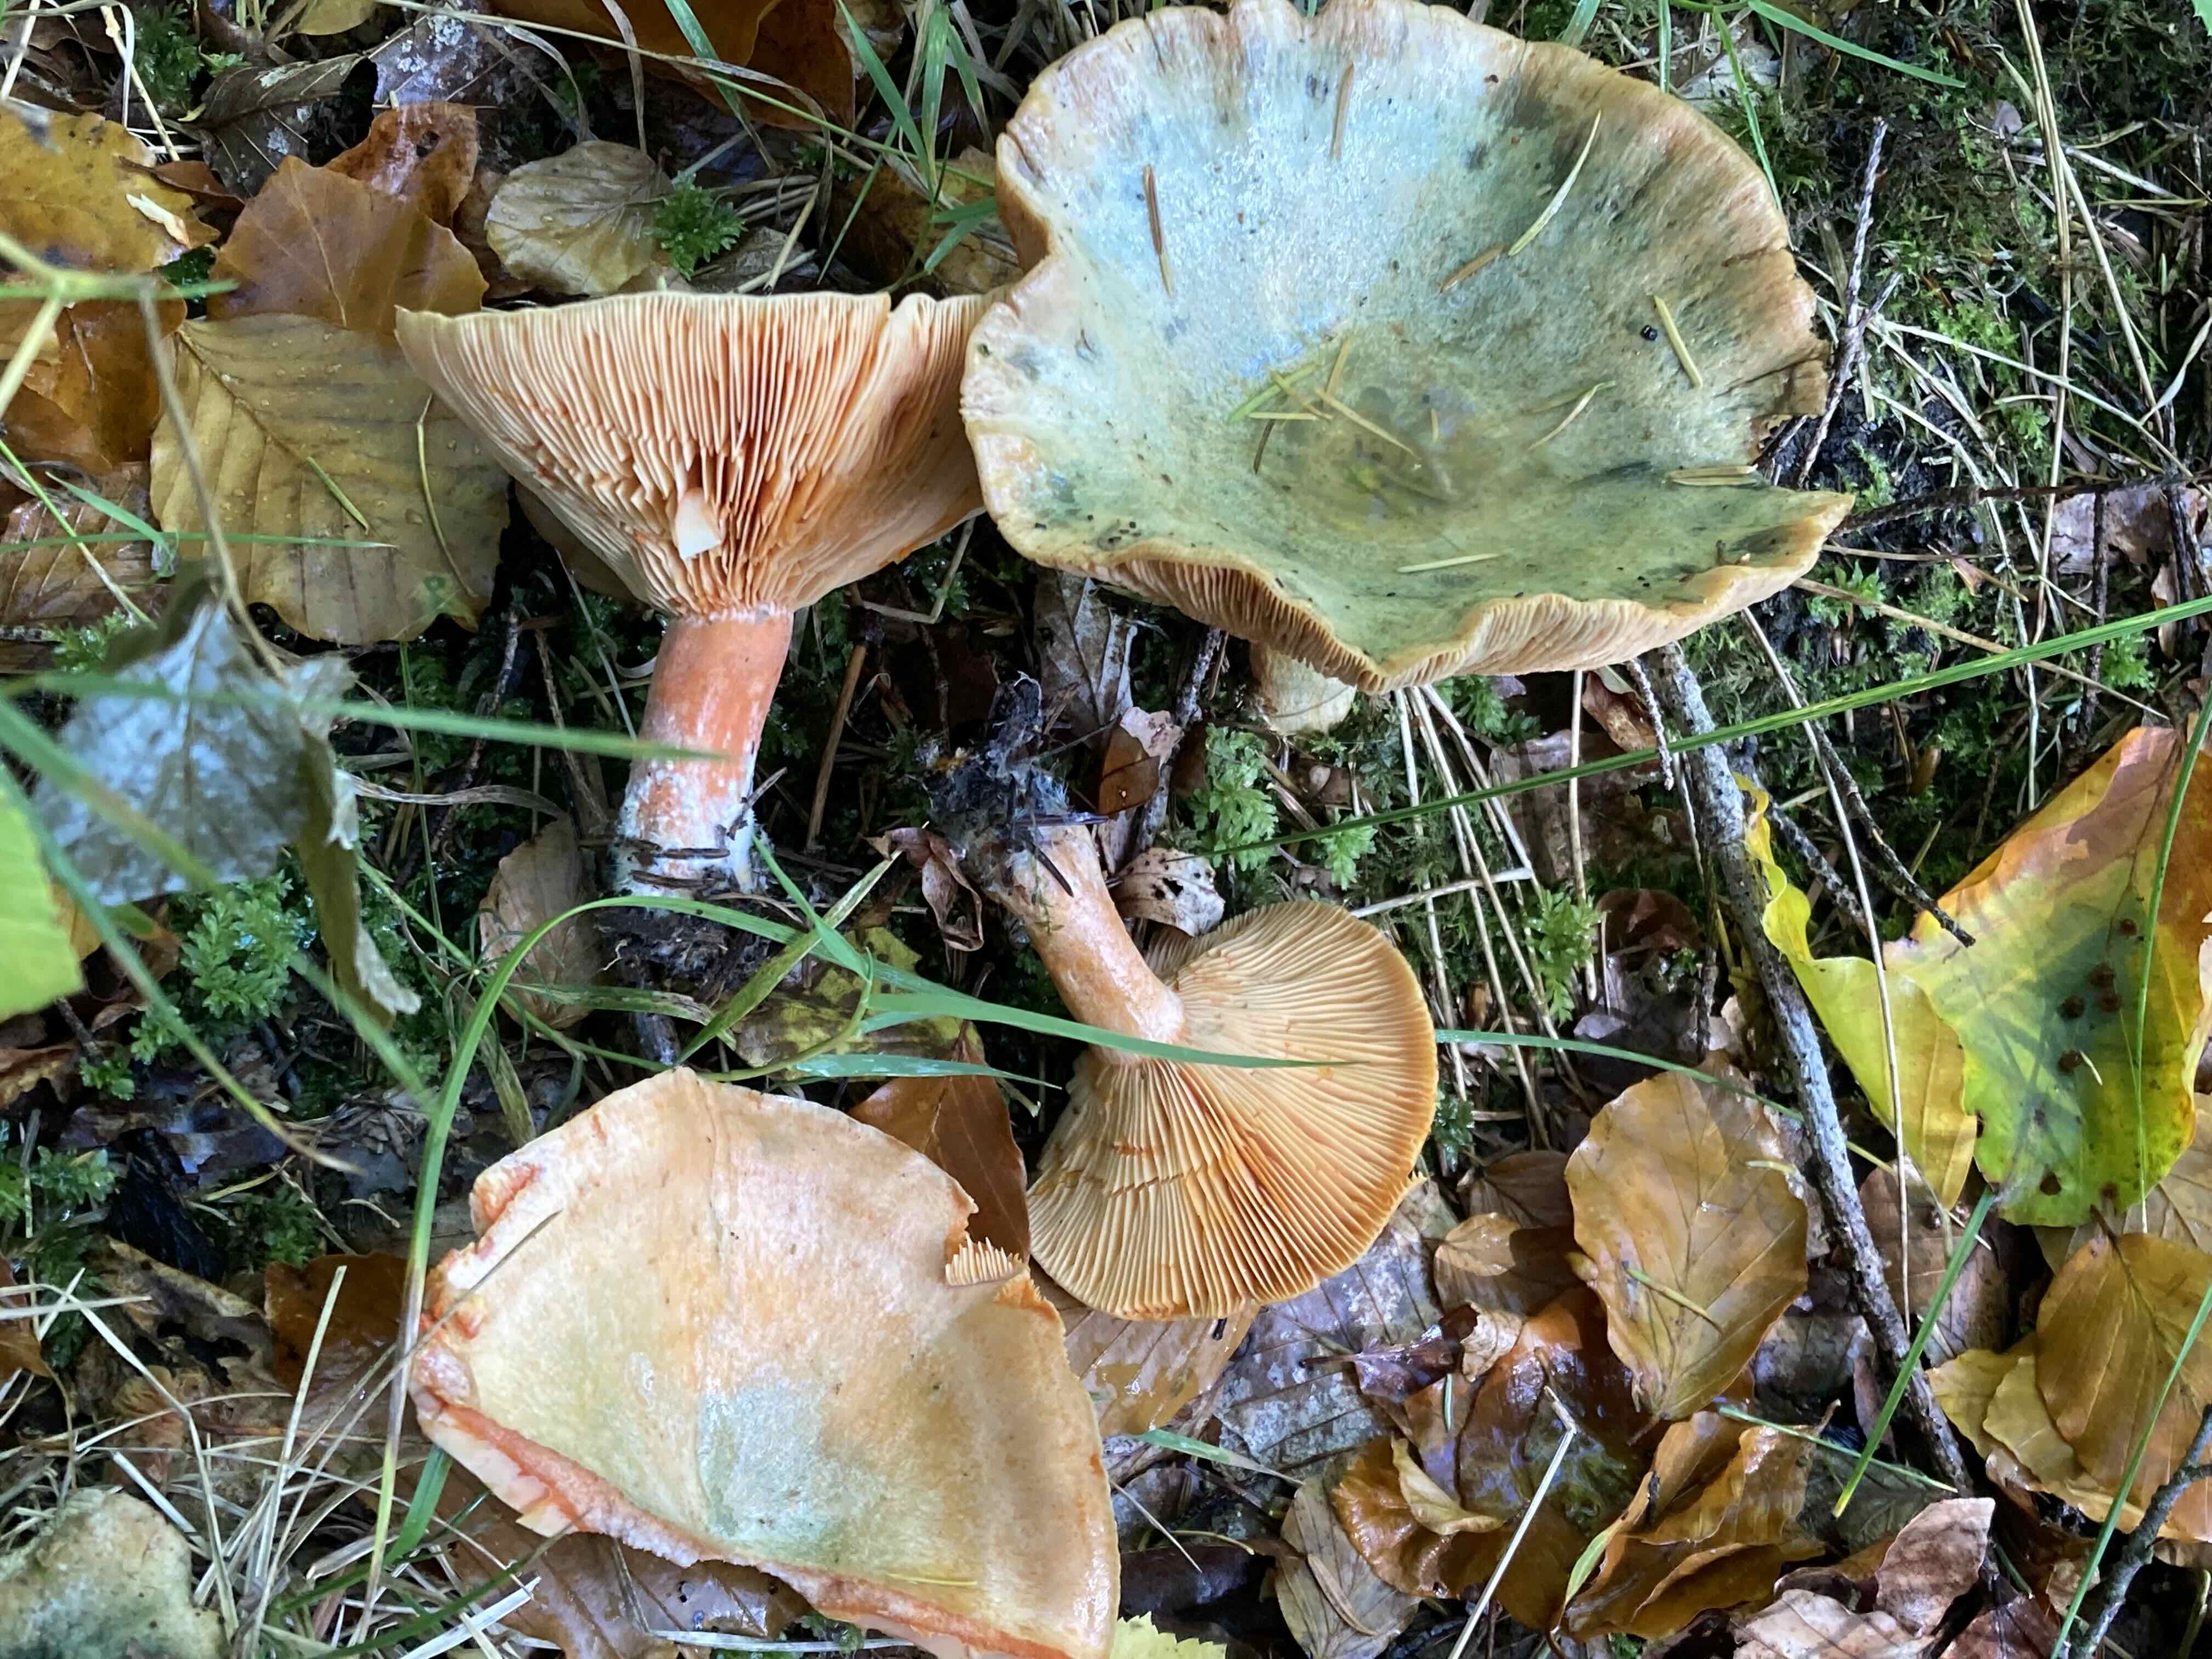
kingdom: Fungi
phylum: Basidiomycota
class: Agaricomycetes
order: Russulales
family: Russulaceae
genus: Lactarius
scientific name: Lactarius deterrimus
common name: gran-mælkehat
